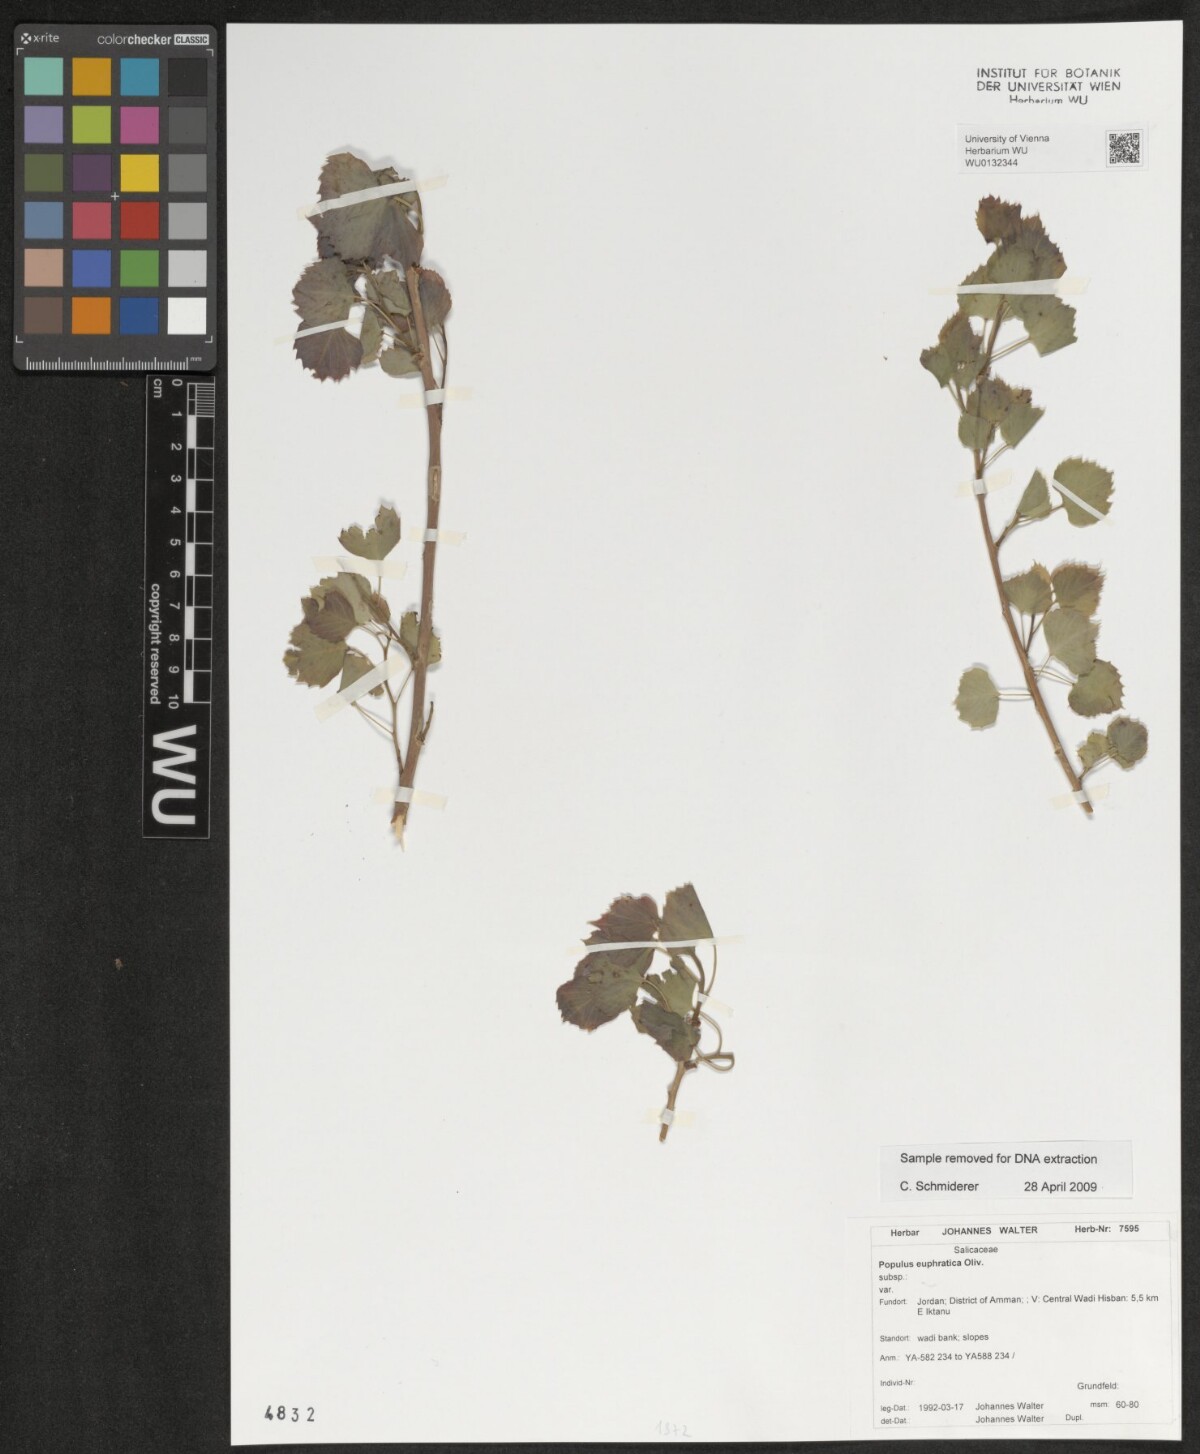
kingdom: Plantae
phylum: Tracheophyta
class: Magnoliopsida
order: Malpighiales
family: Salicaceae
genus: Populus
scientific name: Populus euphratica
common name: Euphrates poplar
